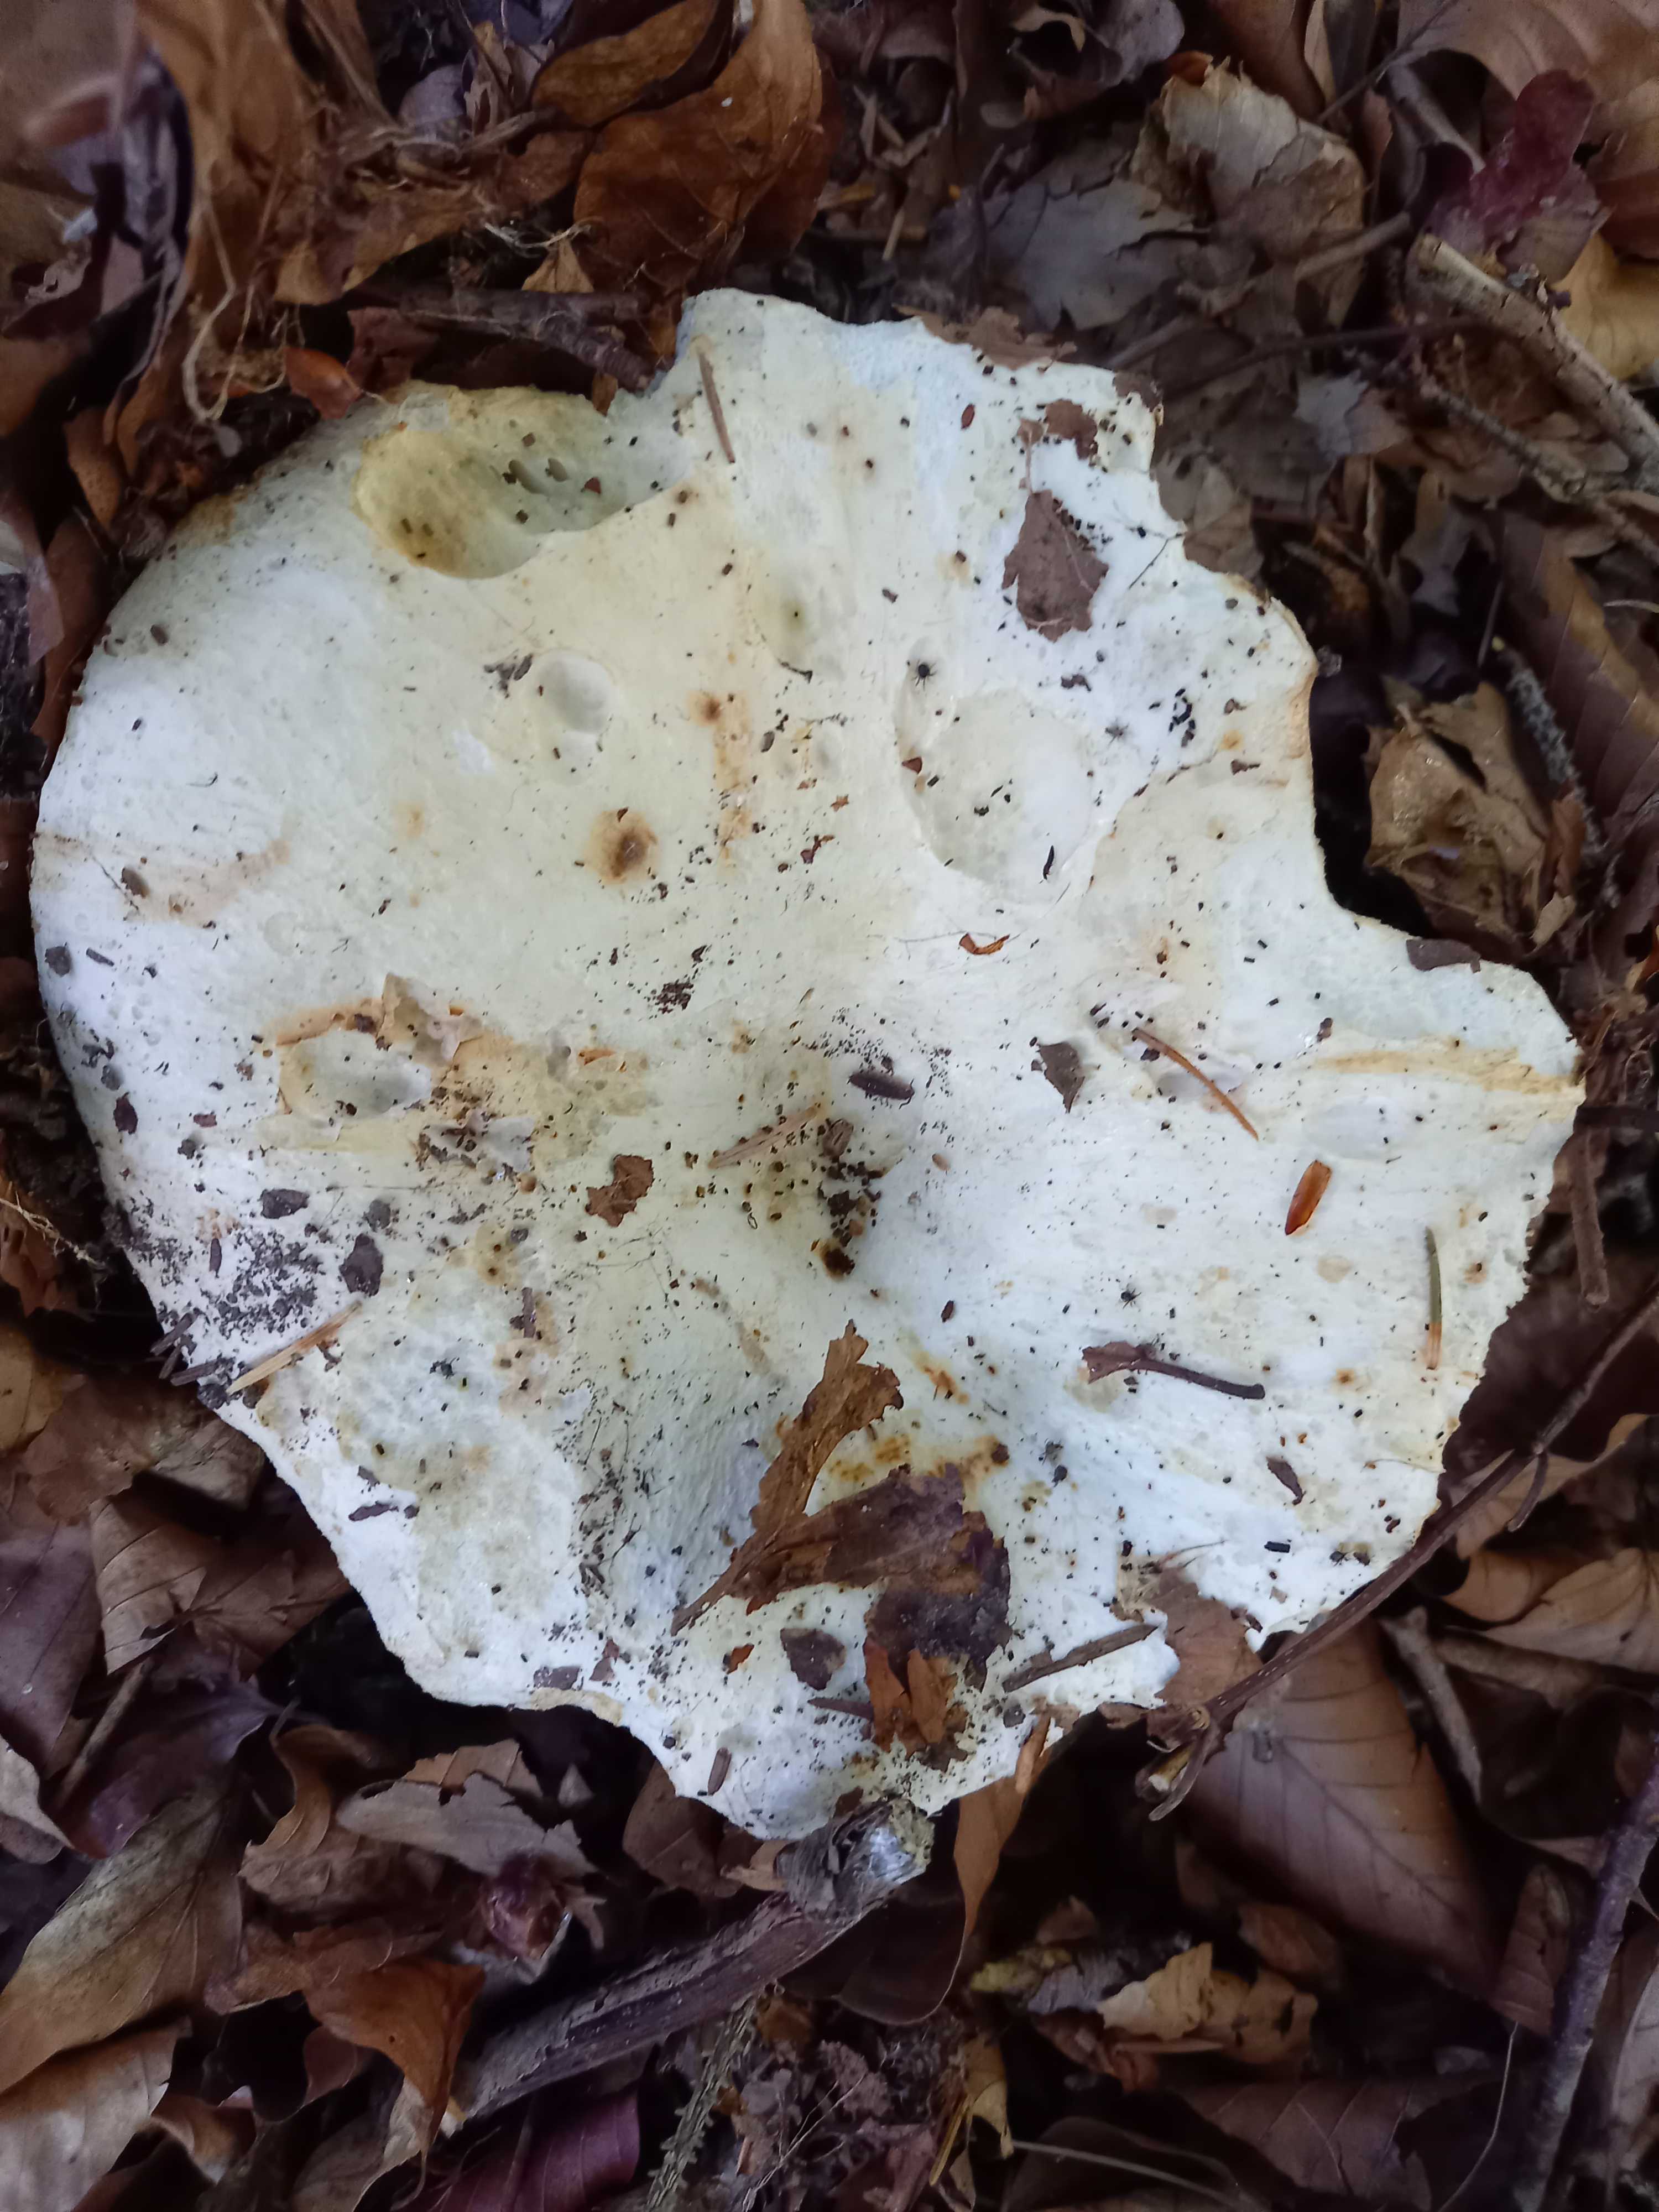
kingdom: Fungi
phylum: Basidiomycota
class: Agaricomycetes
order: Russulales
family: Russulaceae
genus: Russula
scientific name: Russula
